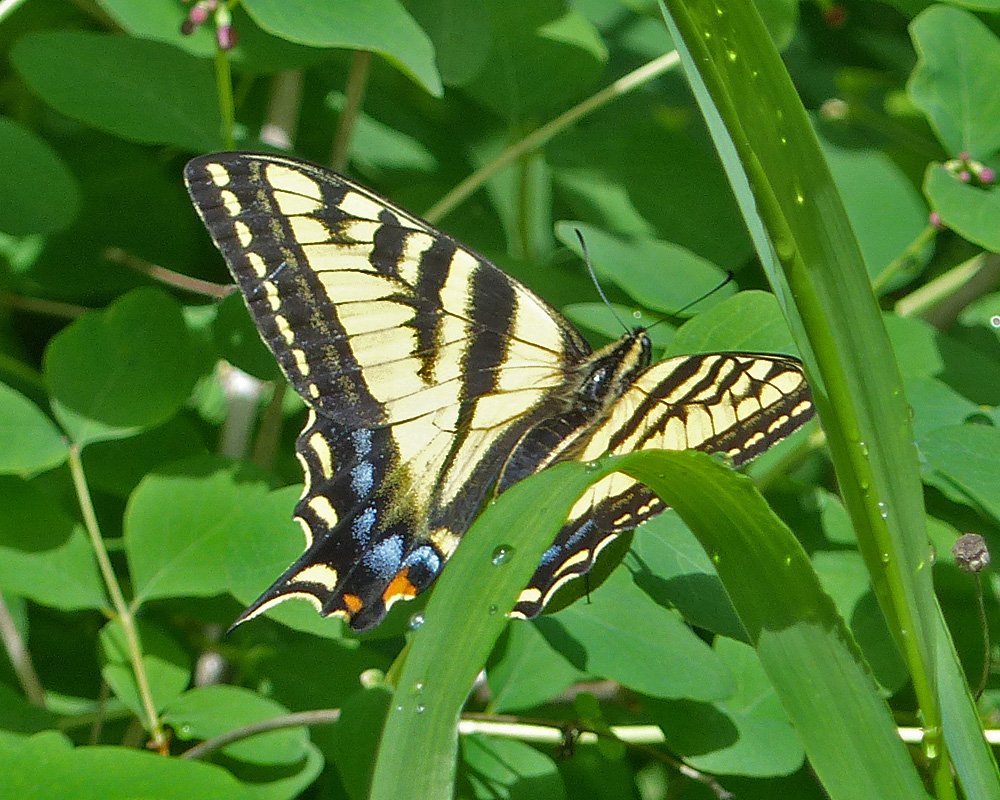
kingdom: Animalia
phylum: Arthropoda
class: Insecta
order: Lepidoptera
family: Papilionidae
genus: Pterourus
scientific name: Pterourus rutulus
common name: Western Tiger Swallowtail
